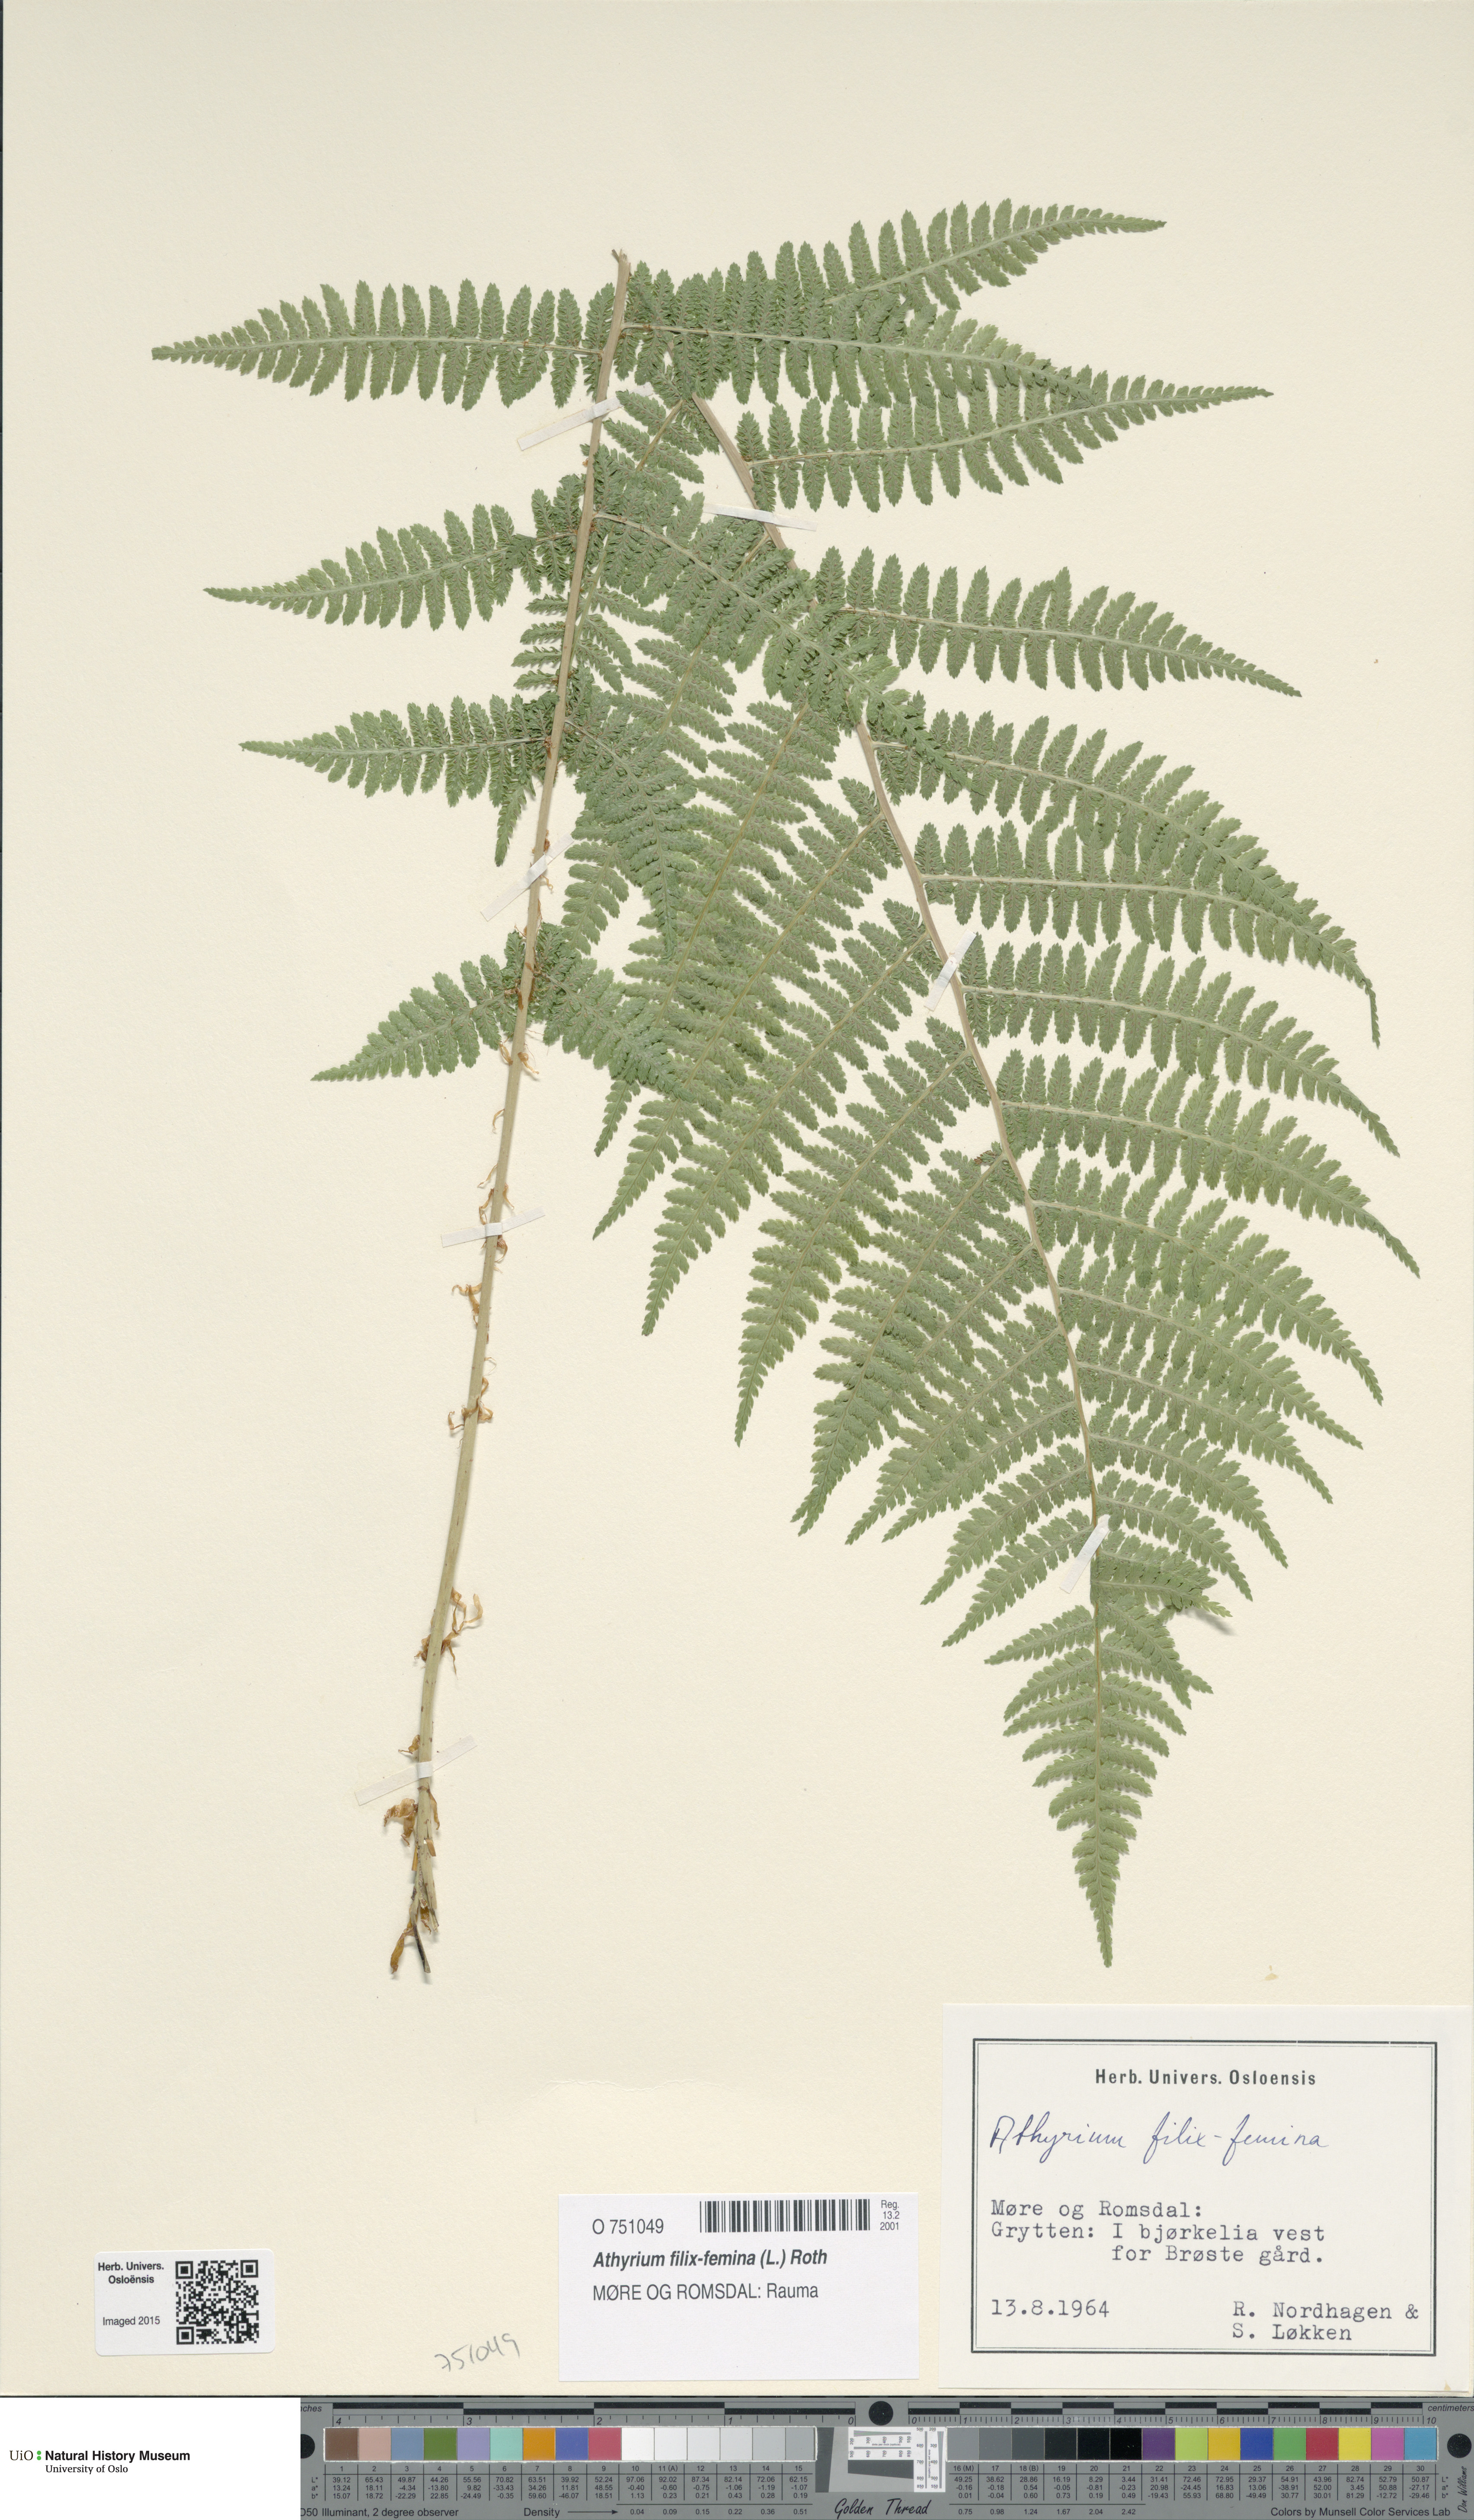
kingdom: Plantae
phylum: Tracheophyta
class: Polypodiopsida
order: Polypodiales
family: Athyriaceae
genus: Athyrium
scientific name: Athyrium filix-femina
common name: Lady fern
